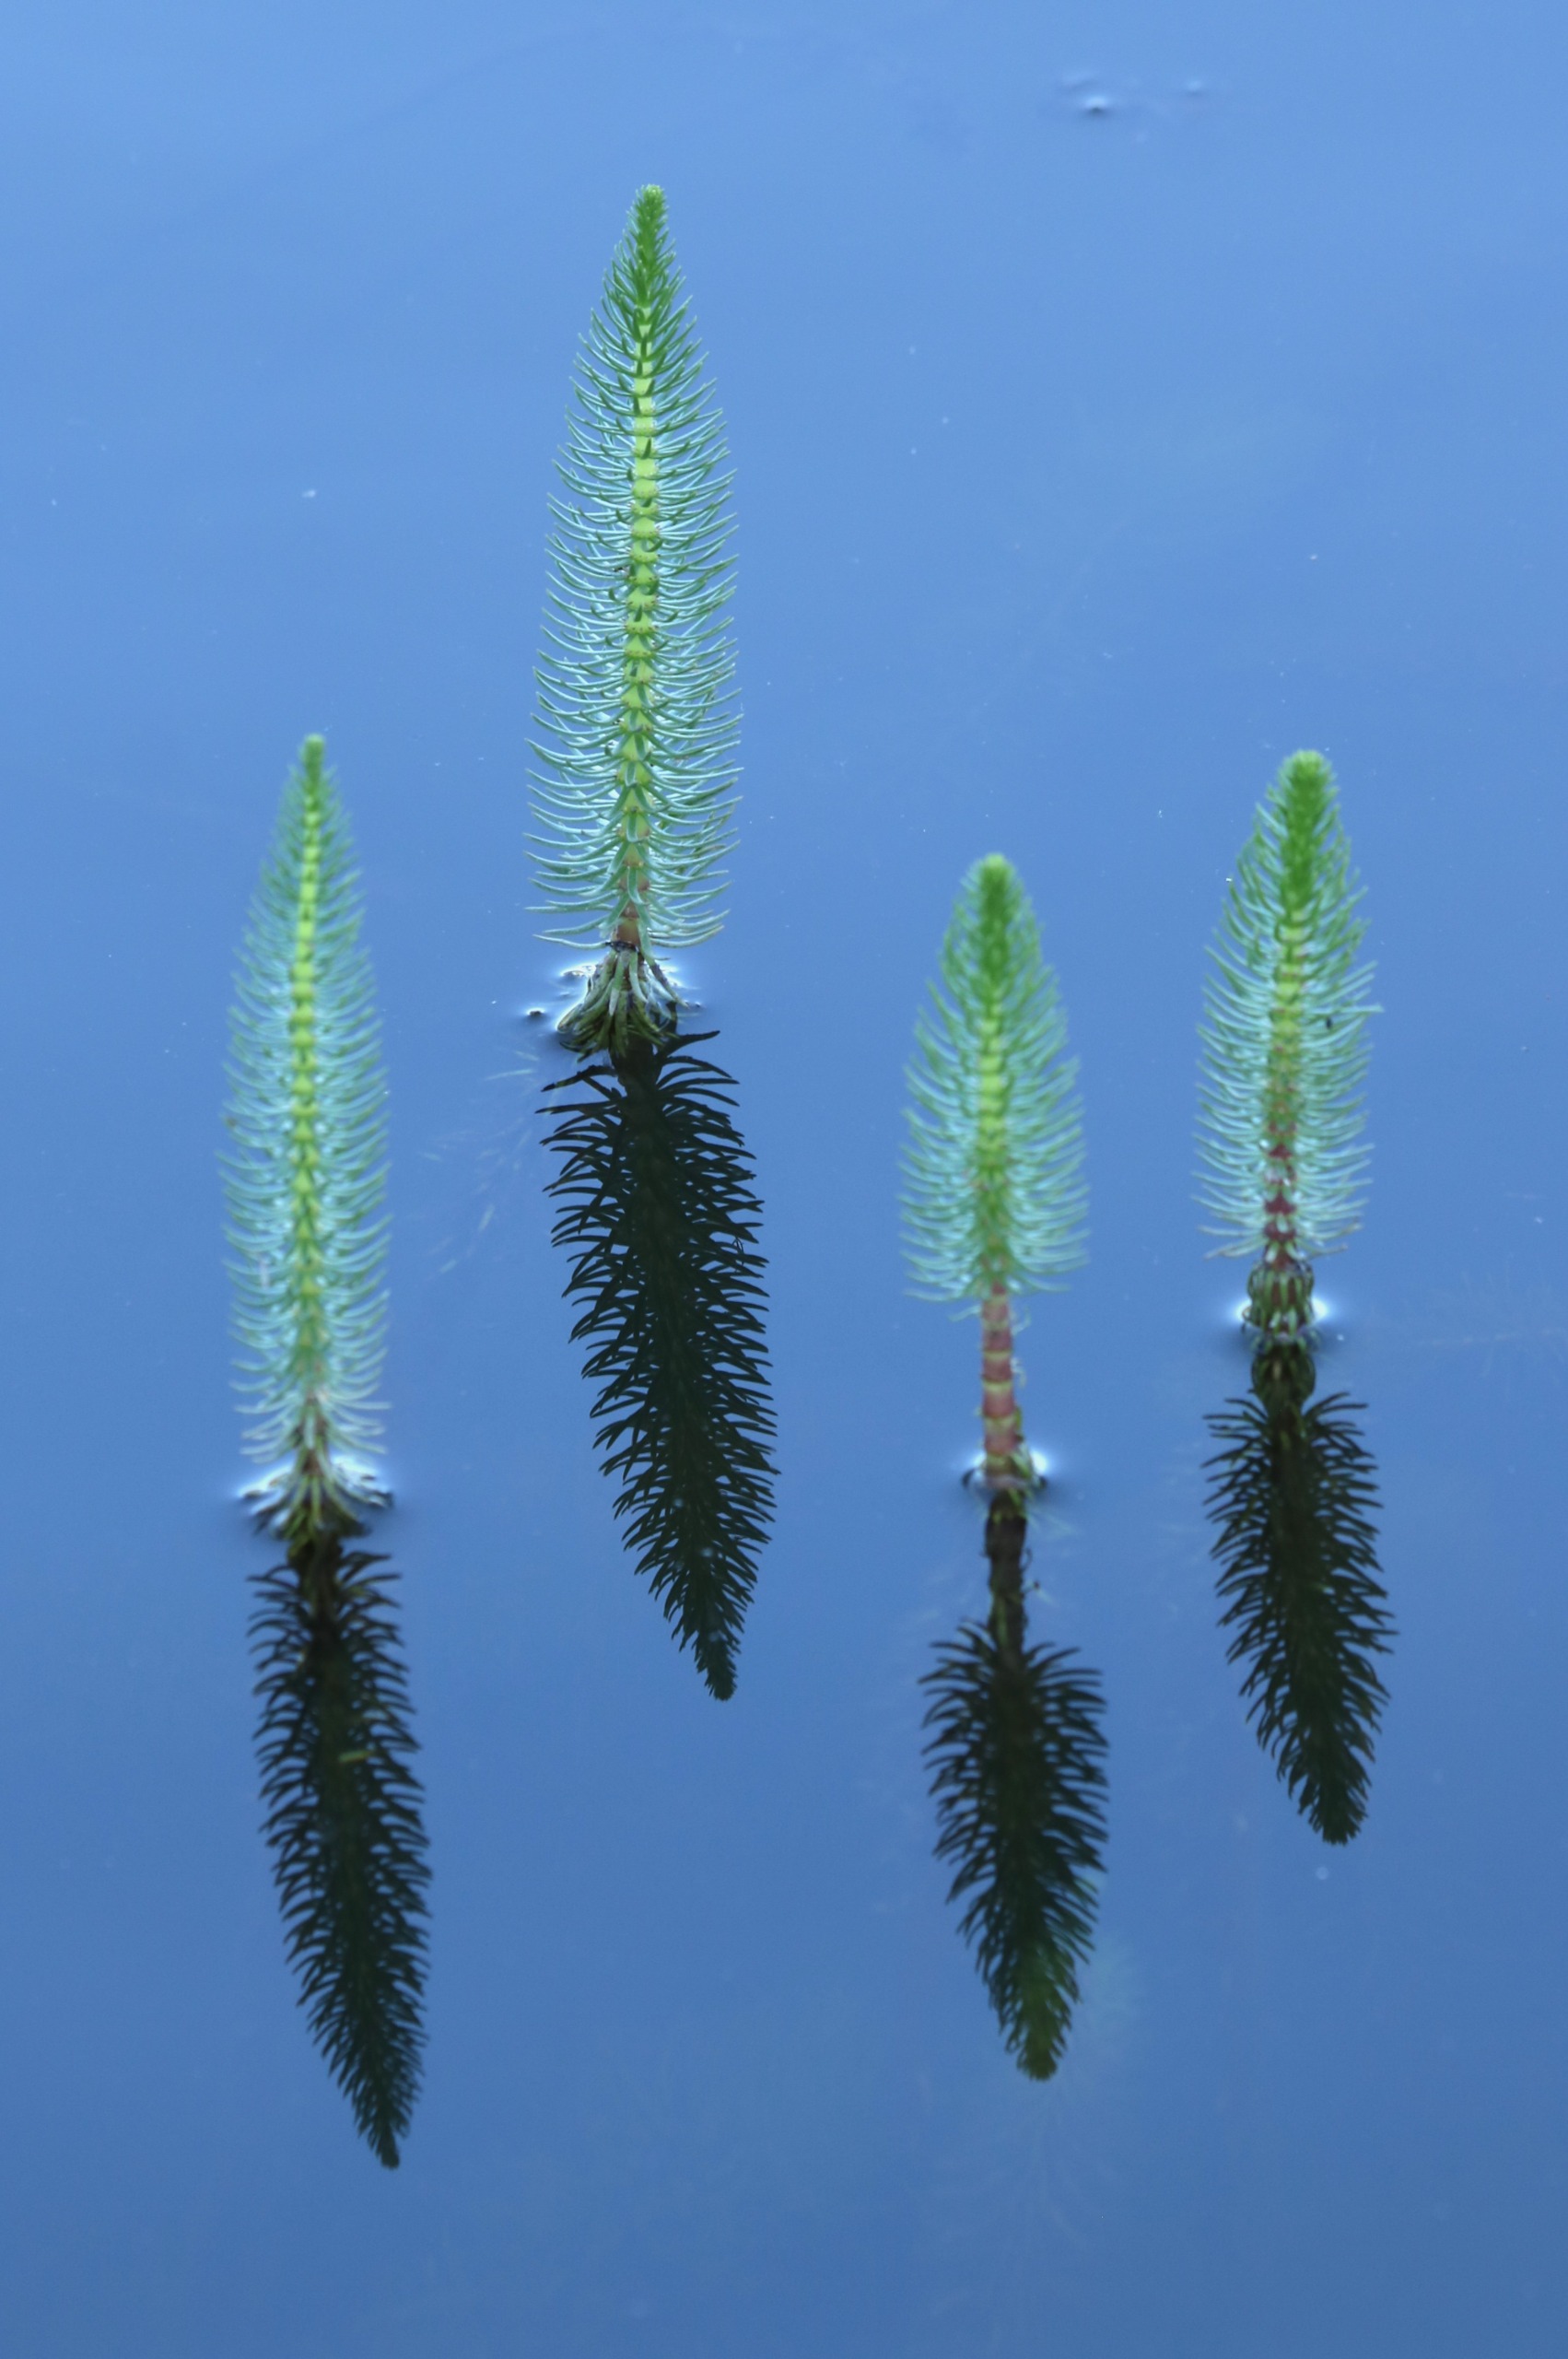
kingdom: Plantae
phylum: Tracheophyta
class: Magnoliopsida
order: Lamiales
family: Plantaginaceae
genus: Hippuris
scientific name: Hippuris vulgaris
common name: Vandspir
